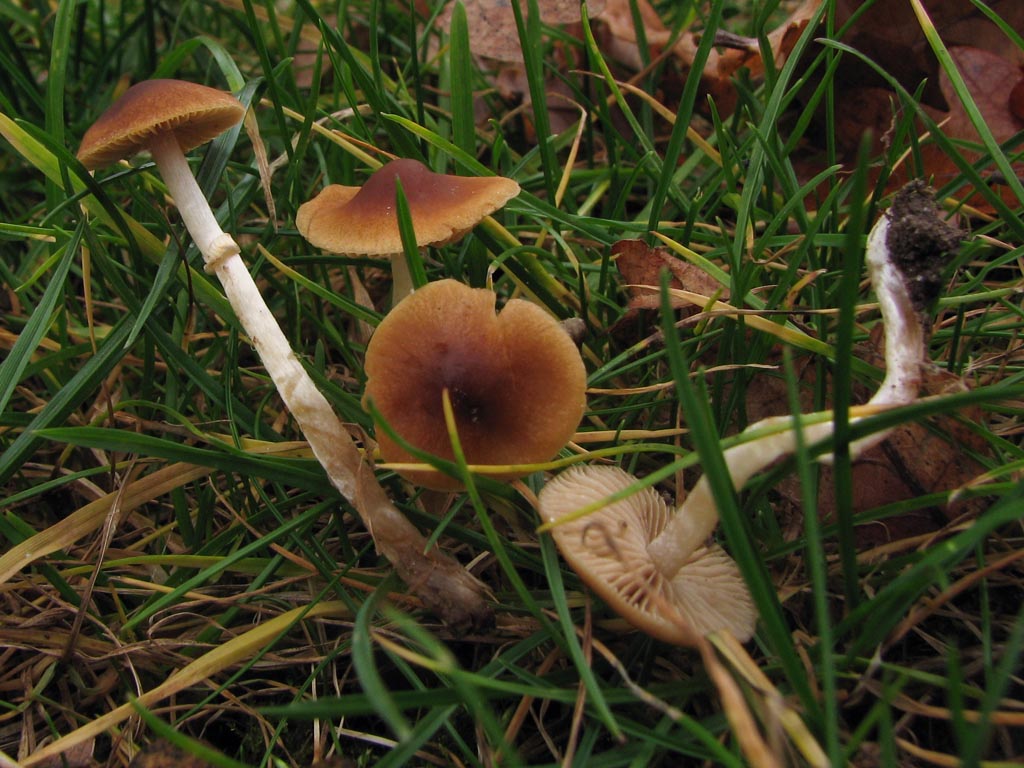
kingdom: Fungi
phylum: Basidiomycota
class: Agaricomycetes
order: Agaricales
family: Bolbitiaceae
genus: Conocybe
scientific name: Conocybe arrhenii
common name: ring-dansehat
